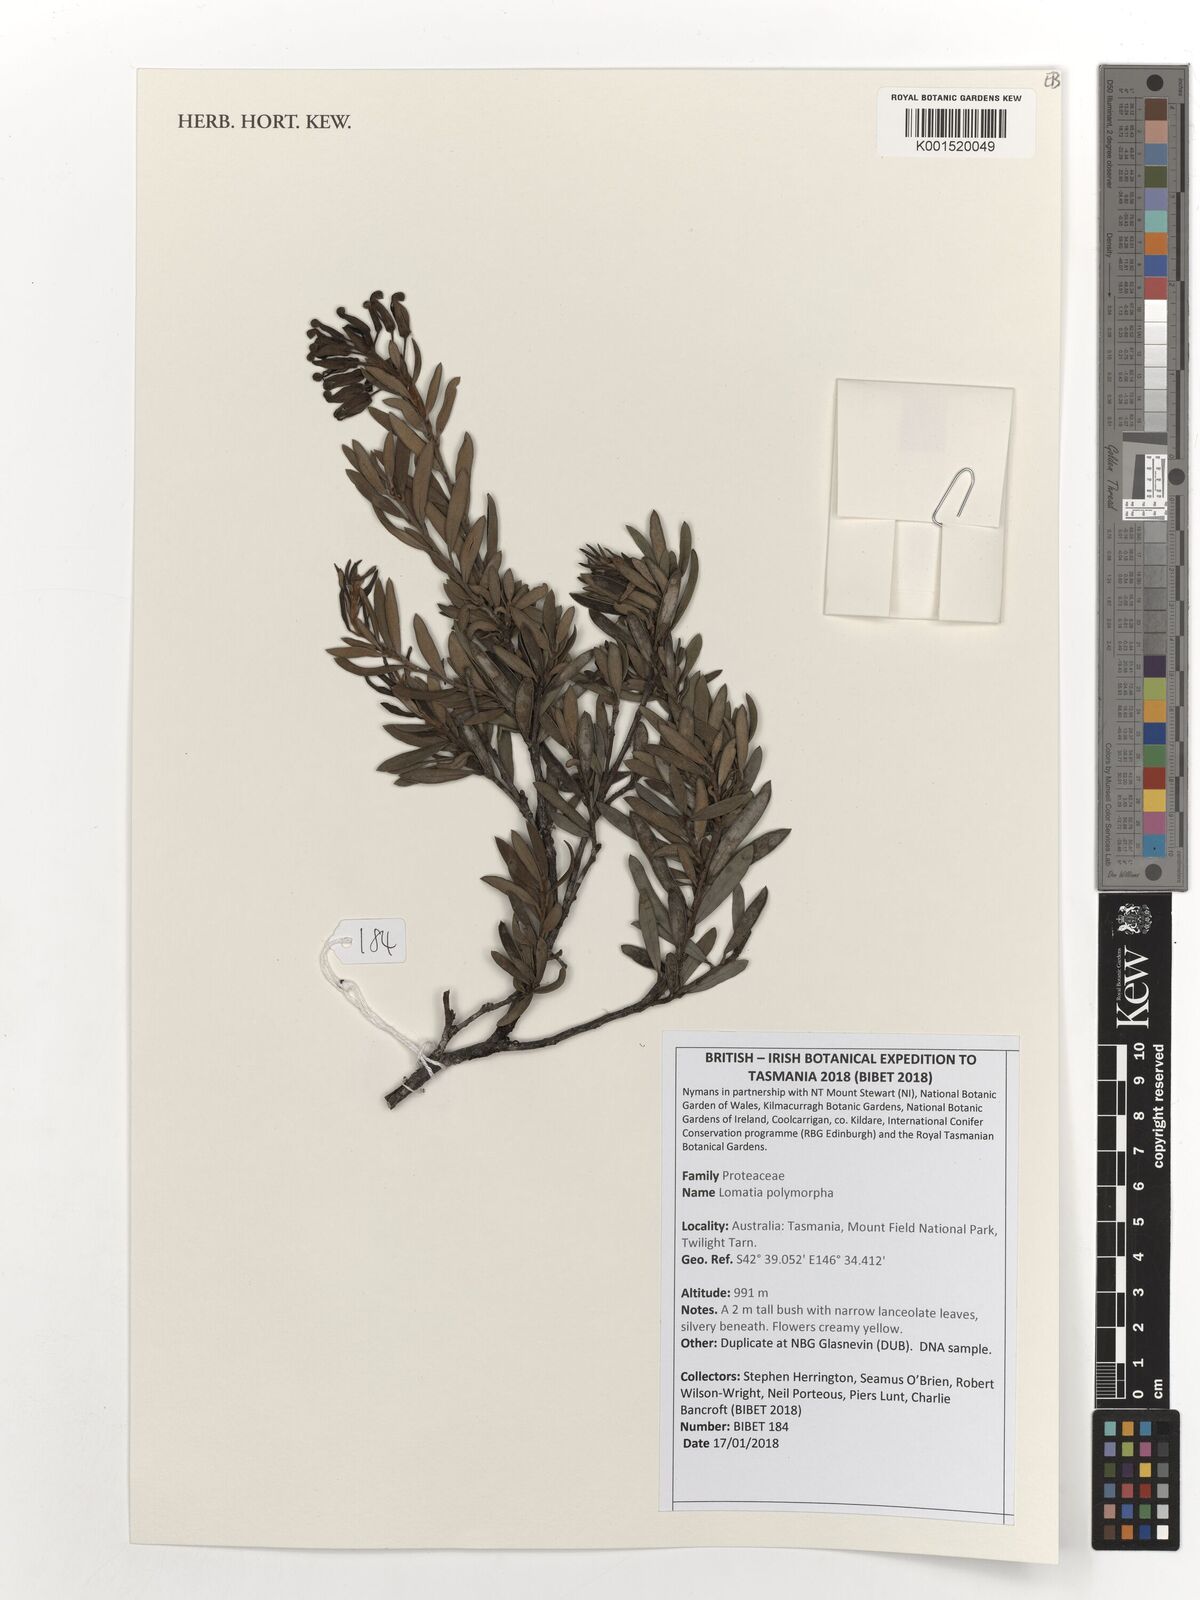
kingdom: Plantae
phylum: Tracheophyta
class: Magnoliopsida
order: Proteales
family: Proteaceae
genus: Lomatia
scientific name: Lomatia polymorpha
